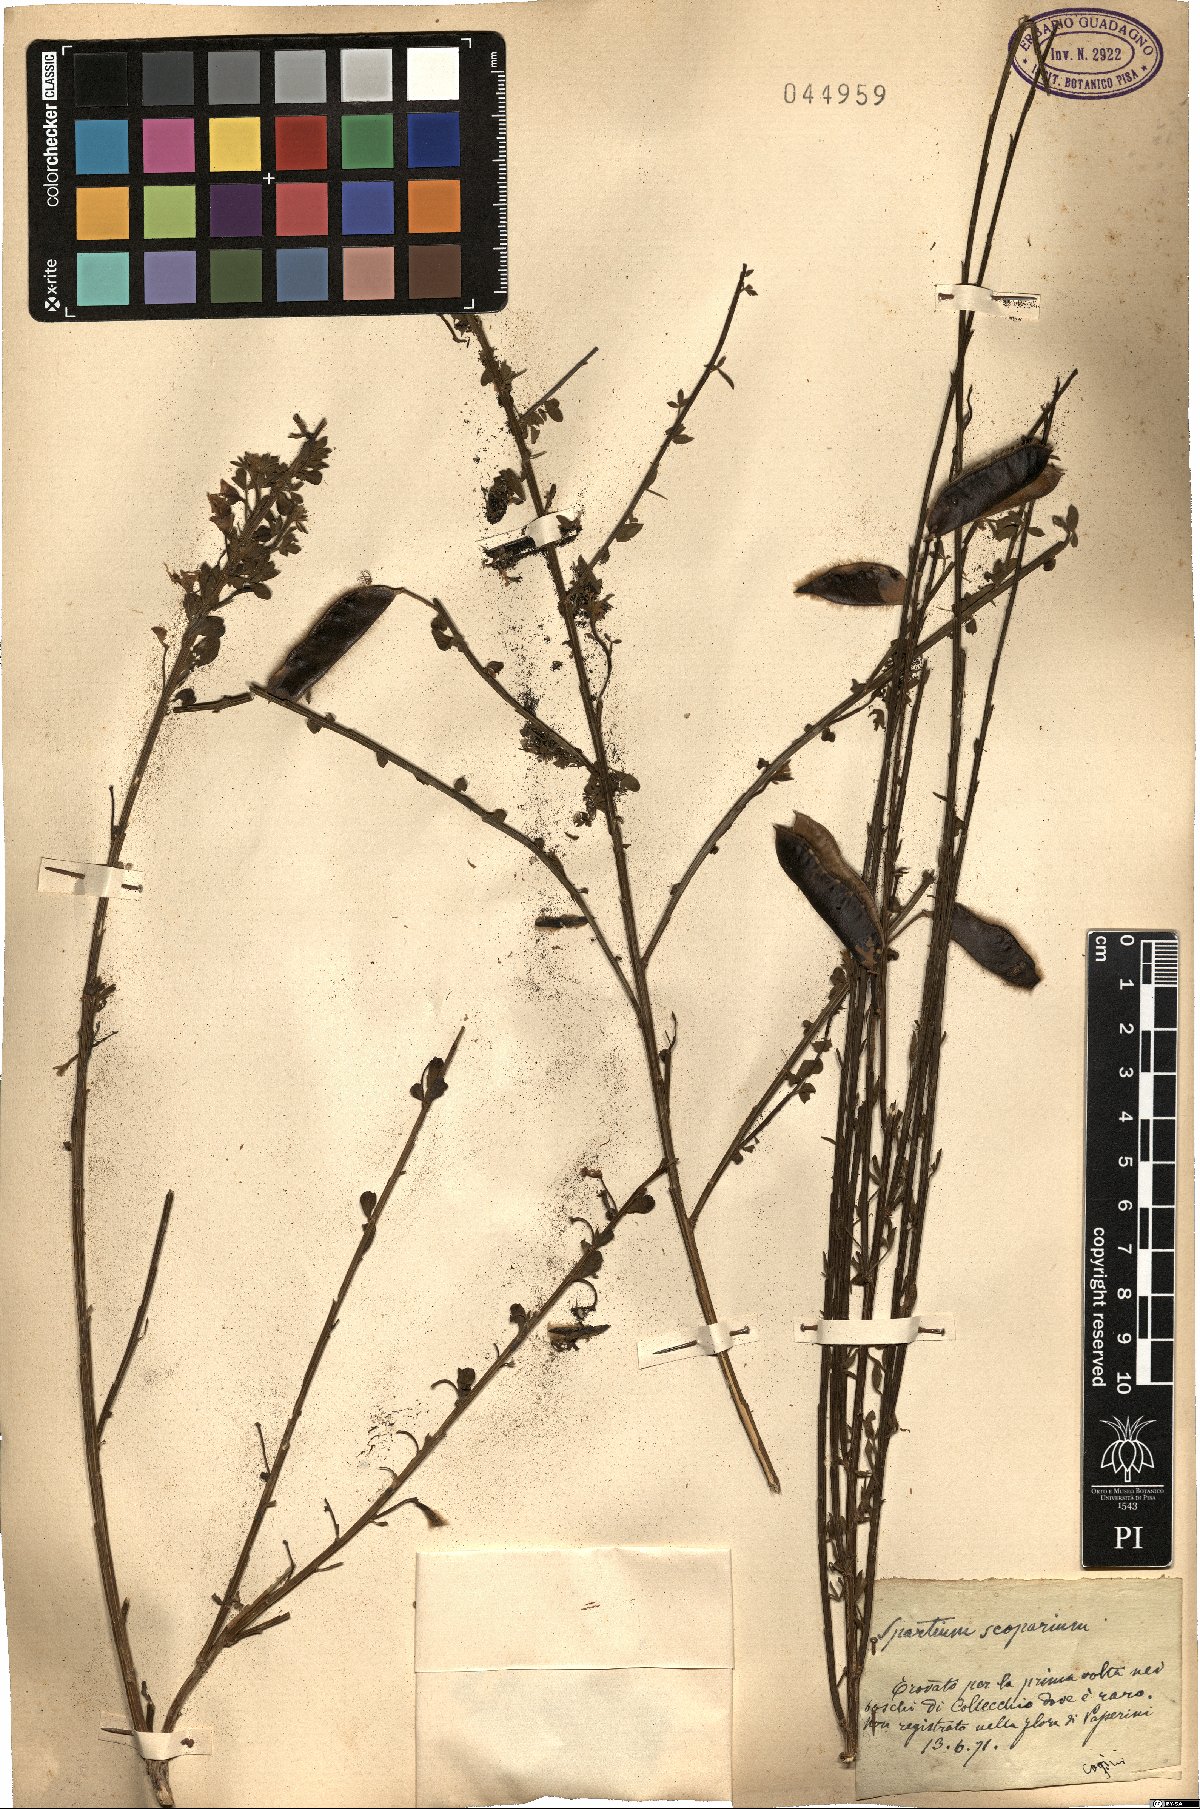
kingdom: Plantae
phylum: Tracheophyta
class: Magnoliopsida
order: Fabales
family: Fabaceae
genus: Lebeckia
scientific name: Lebeckia sepiaria
